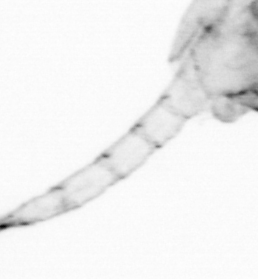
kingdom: Animalia
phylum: Arthropoda
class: Copepoda
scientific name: Copepoda
